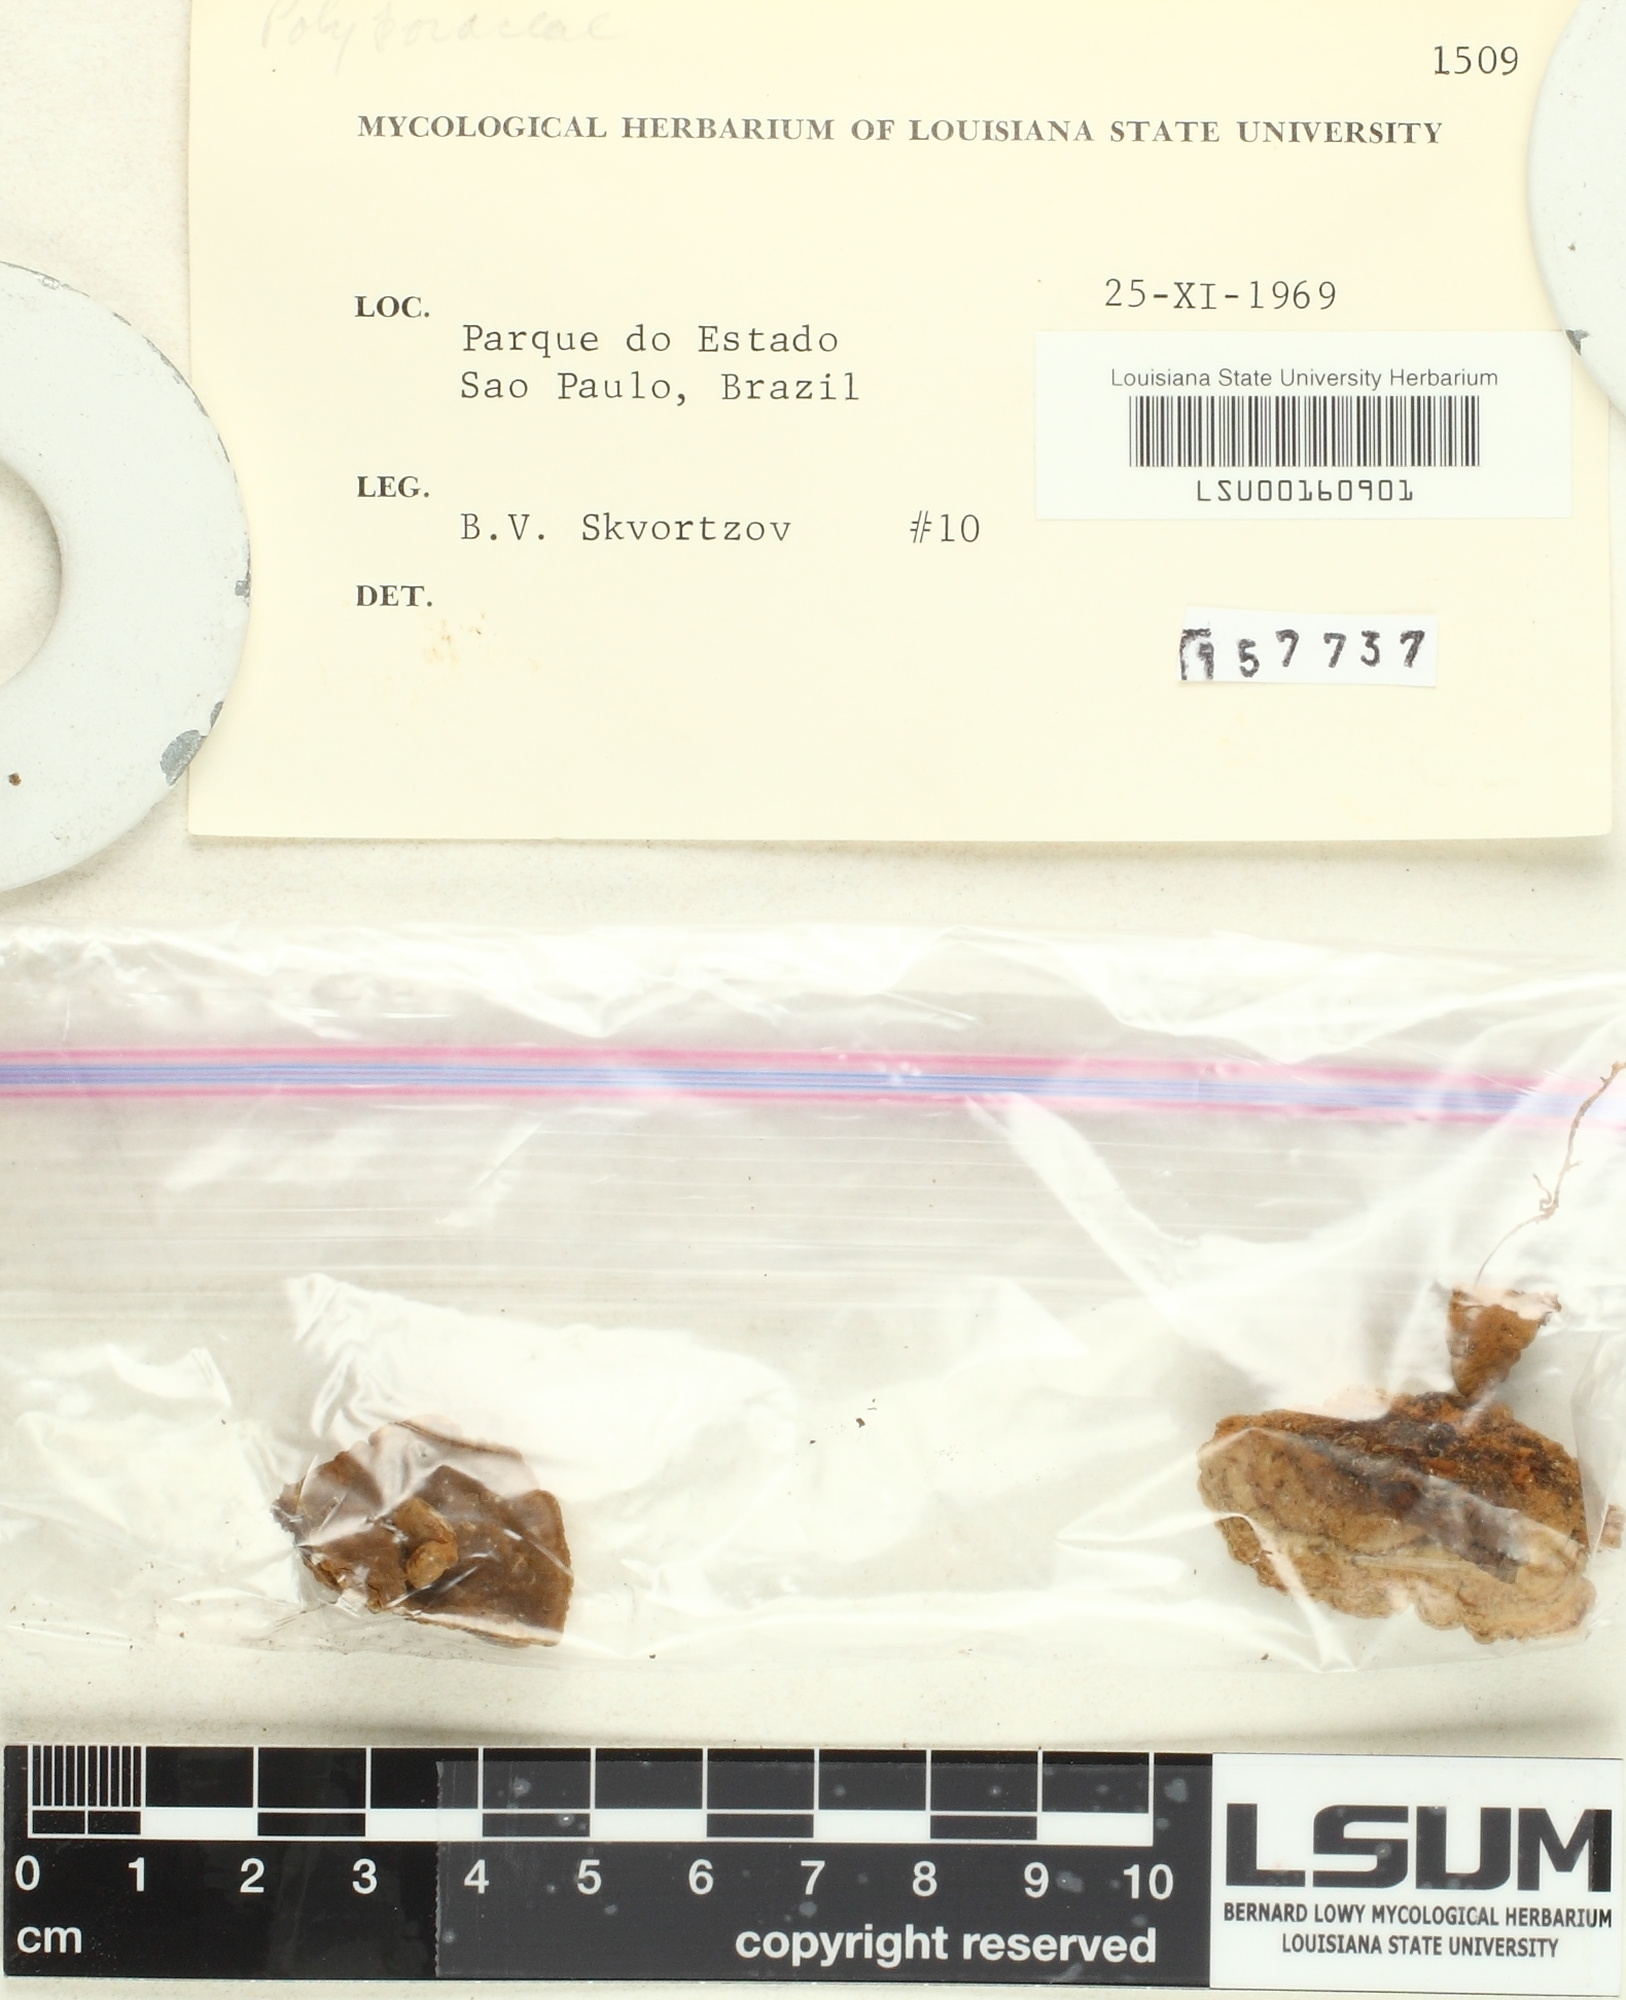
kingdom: Fungi
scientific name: Fungi
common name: Fungi
